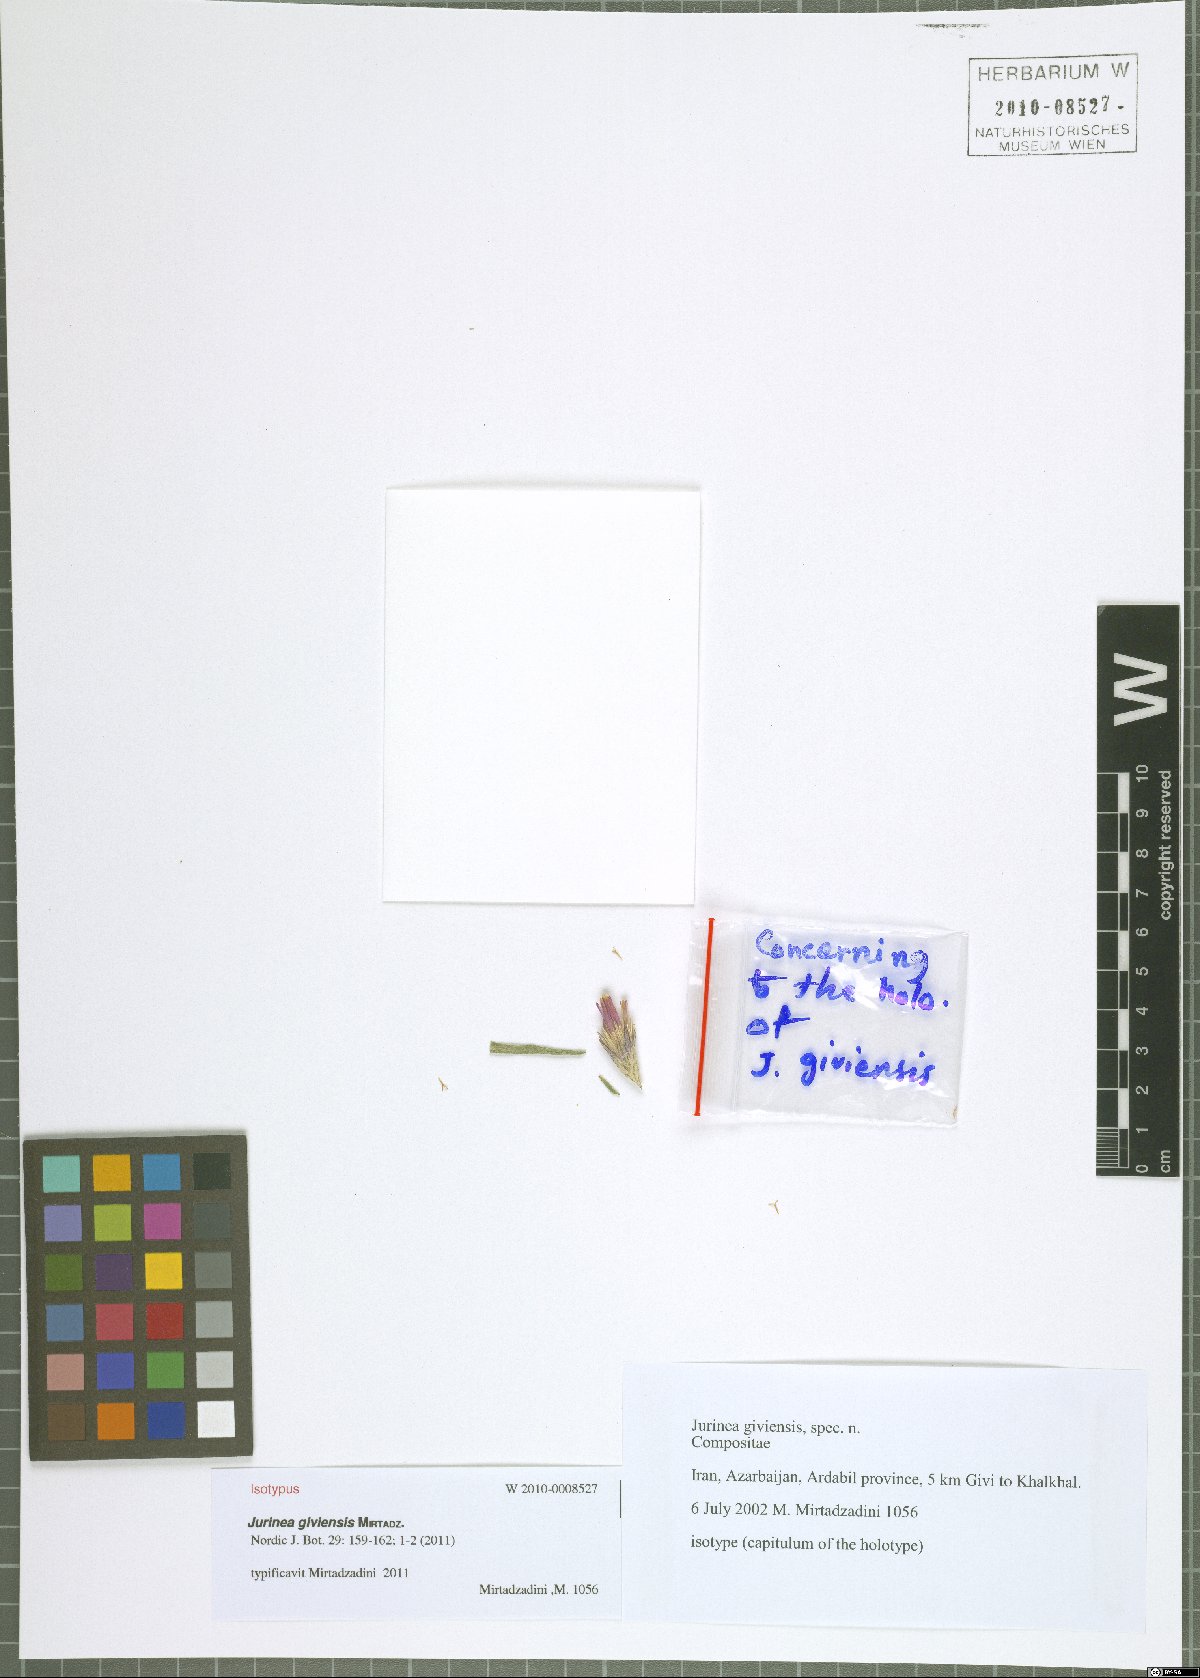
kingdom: Plantae
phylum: Tracheophyta
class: Magnoliopsida
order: Asterales
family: Asteraceae
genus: Jurinea
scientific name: Jurinea giviensis
